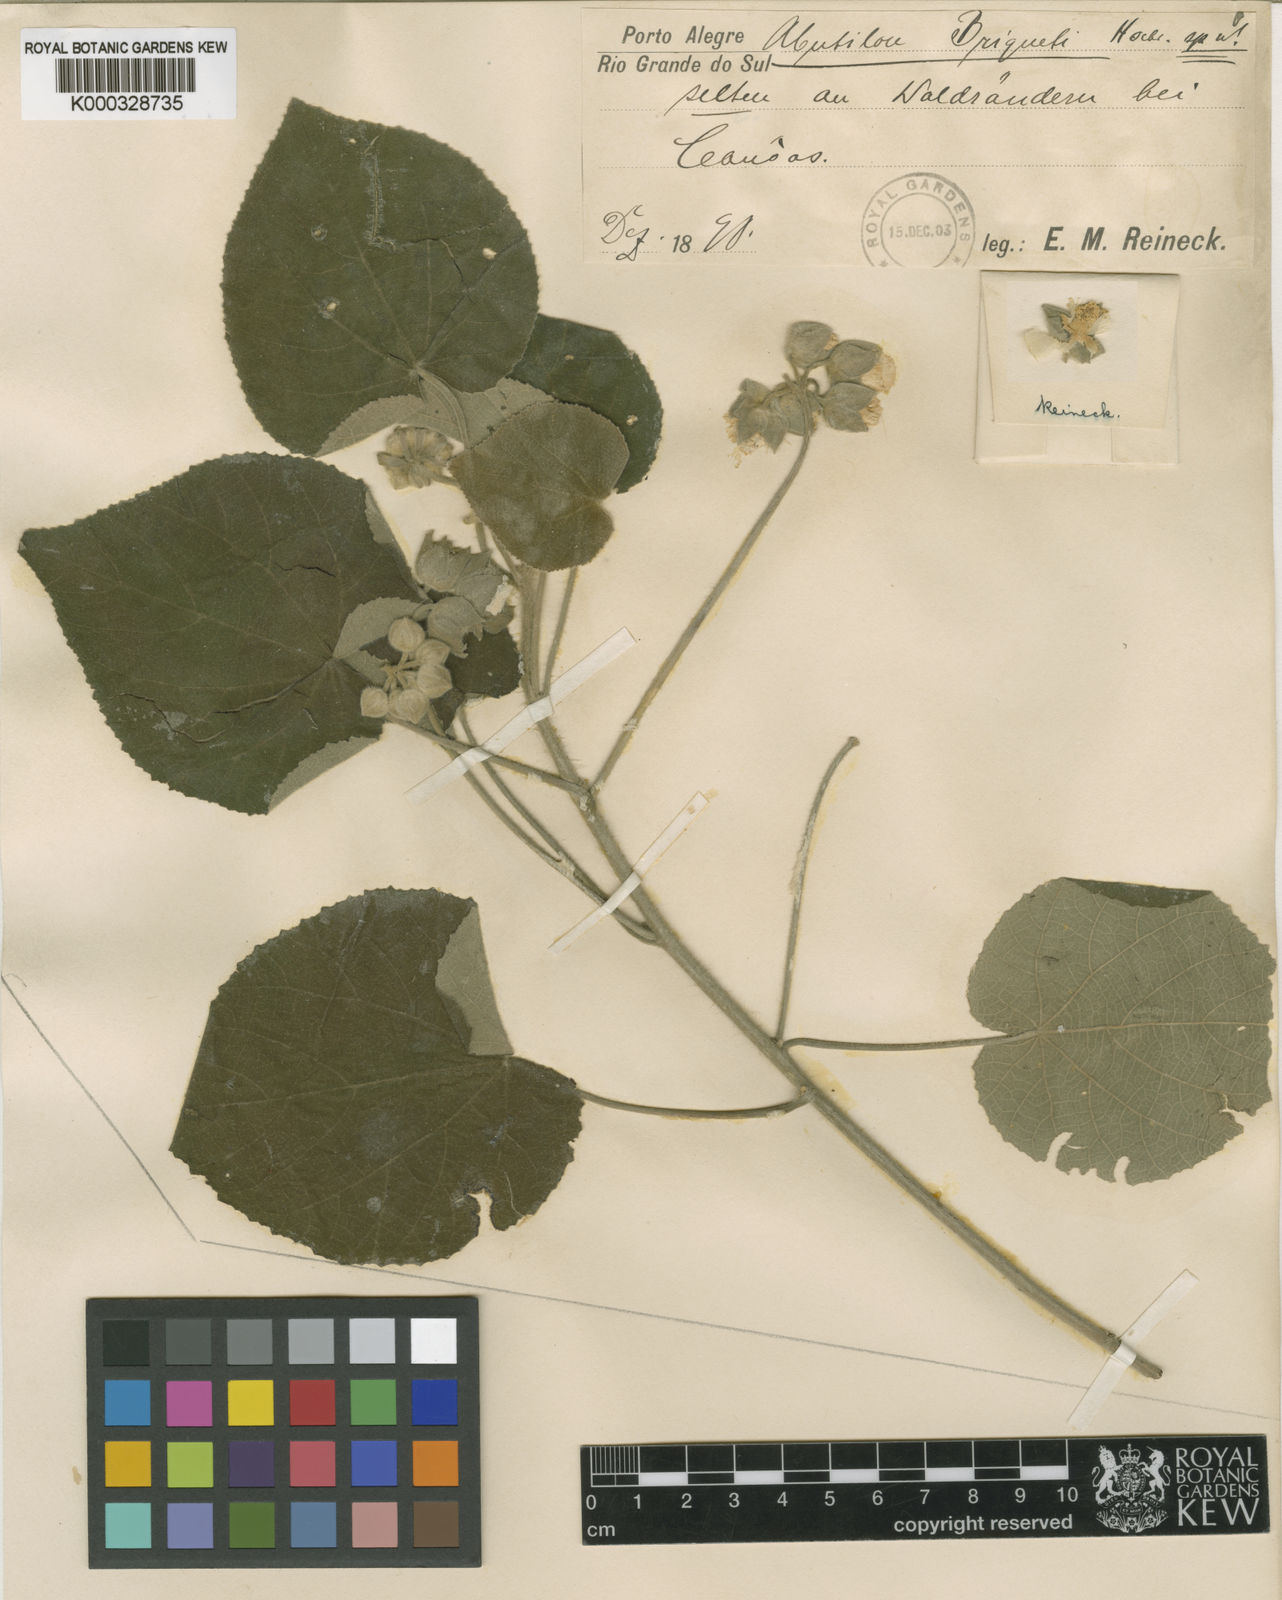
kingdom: Plantae
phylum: Tracheophyta
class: Magnoliopsida
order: Malvales
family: Malvaceae
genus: Abutilon
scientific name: Abutilon
